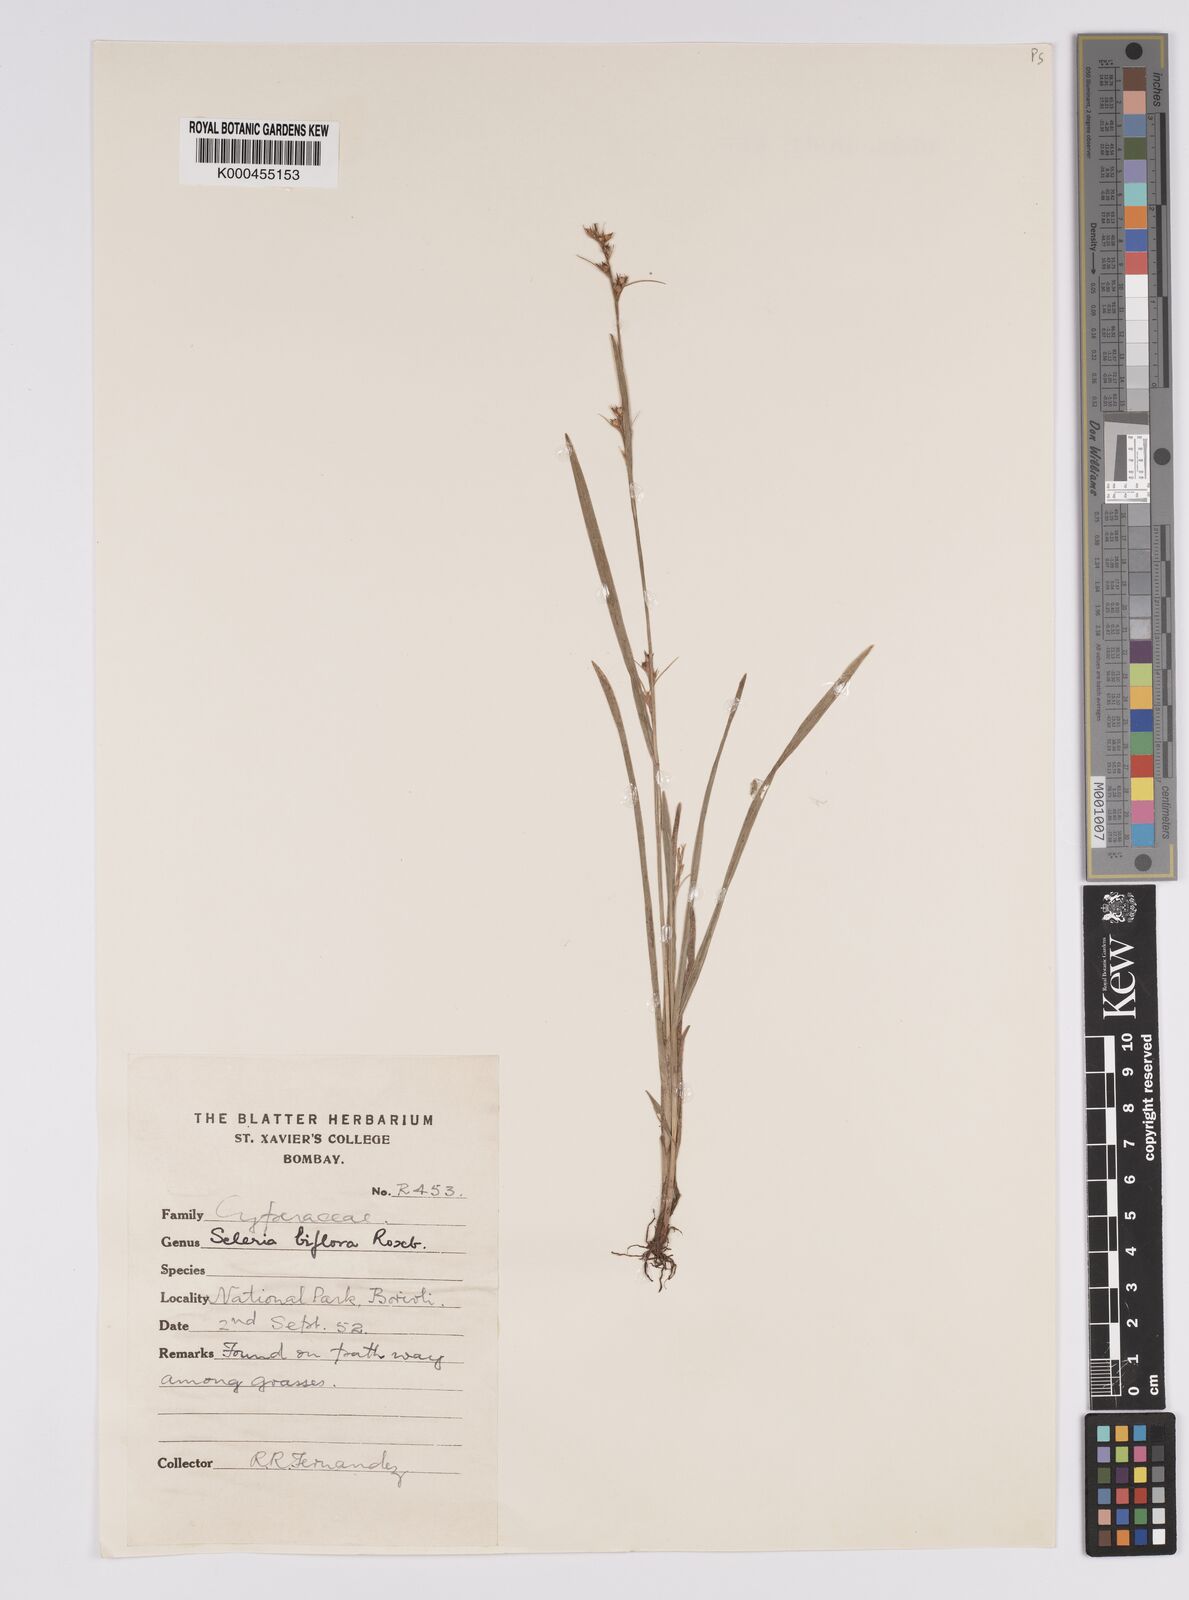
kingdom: Plantae
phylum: Tracheophyta
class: Liliopsida
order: Poales
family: Cyperaceae
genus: Scleria
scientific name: Scleria biflora
